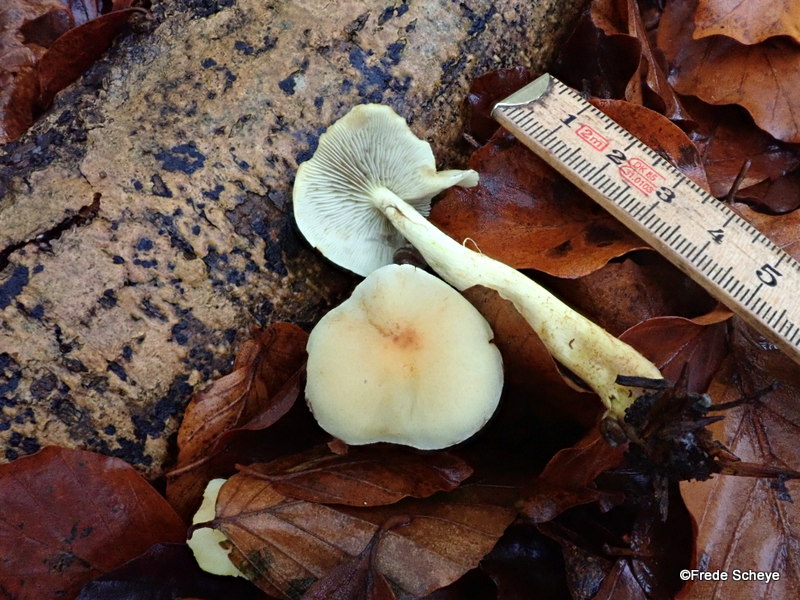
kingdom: Fungi
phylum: Basidiomycota
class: Agaricomycetes
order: Agaricales
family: Strophariaceae
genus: Hypholoma
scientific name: Hypholoma fasciculare
